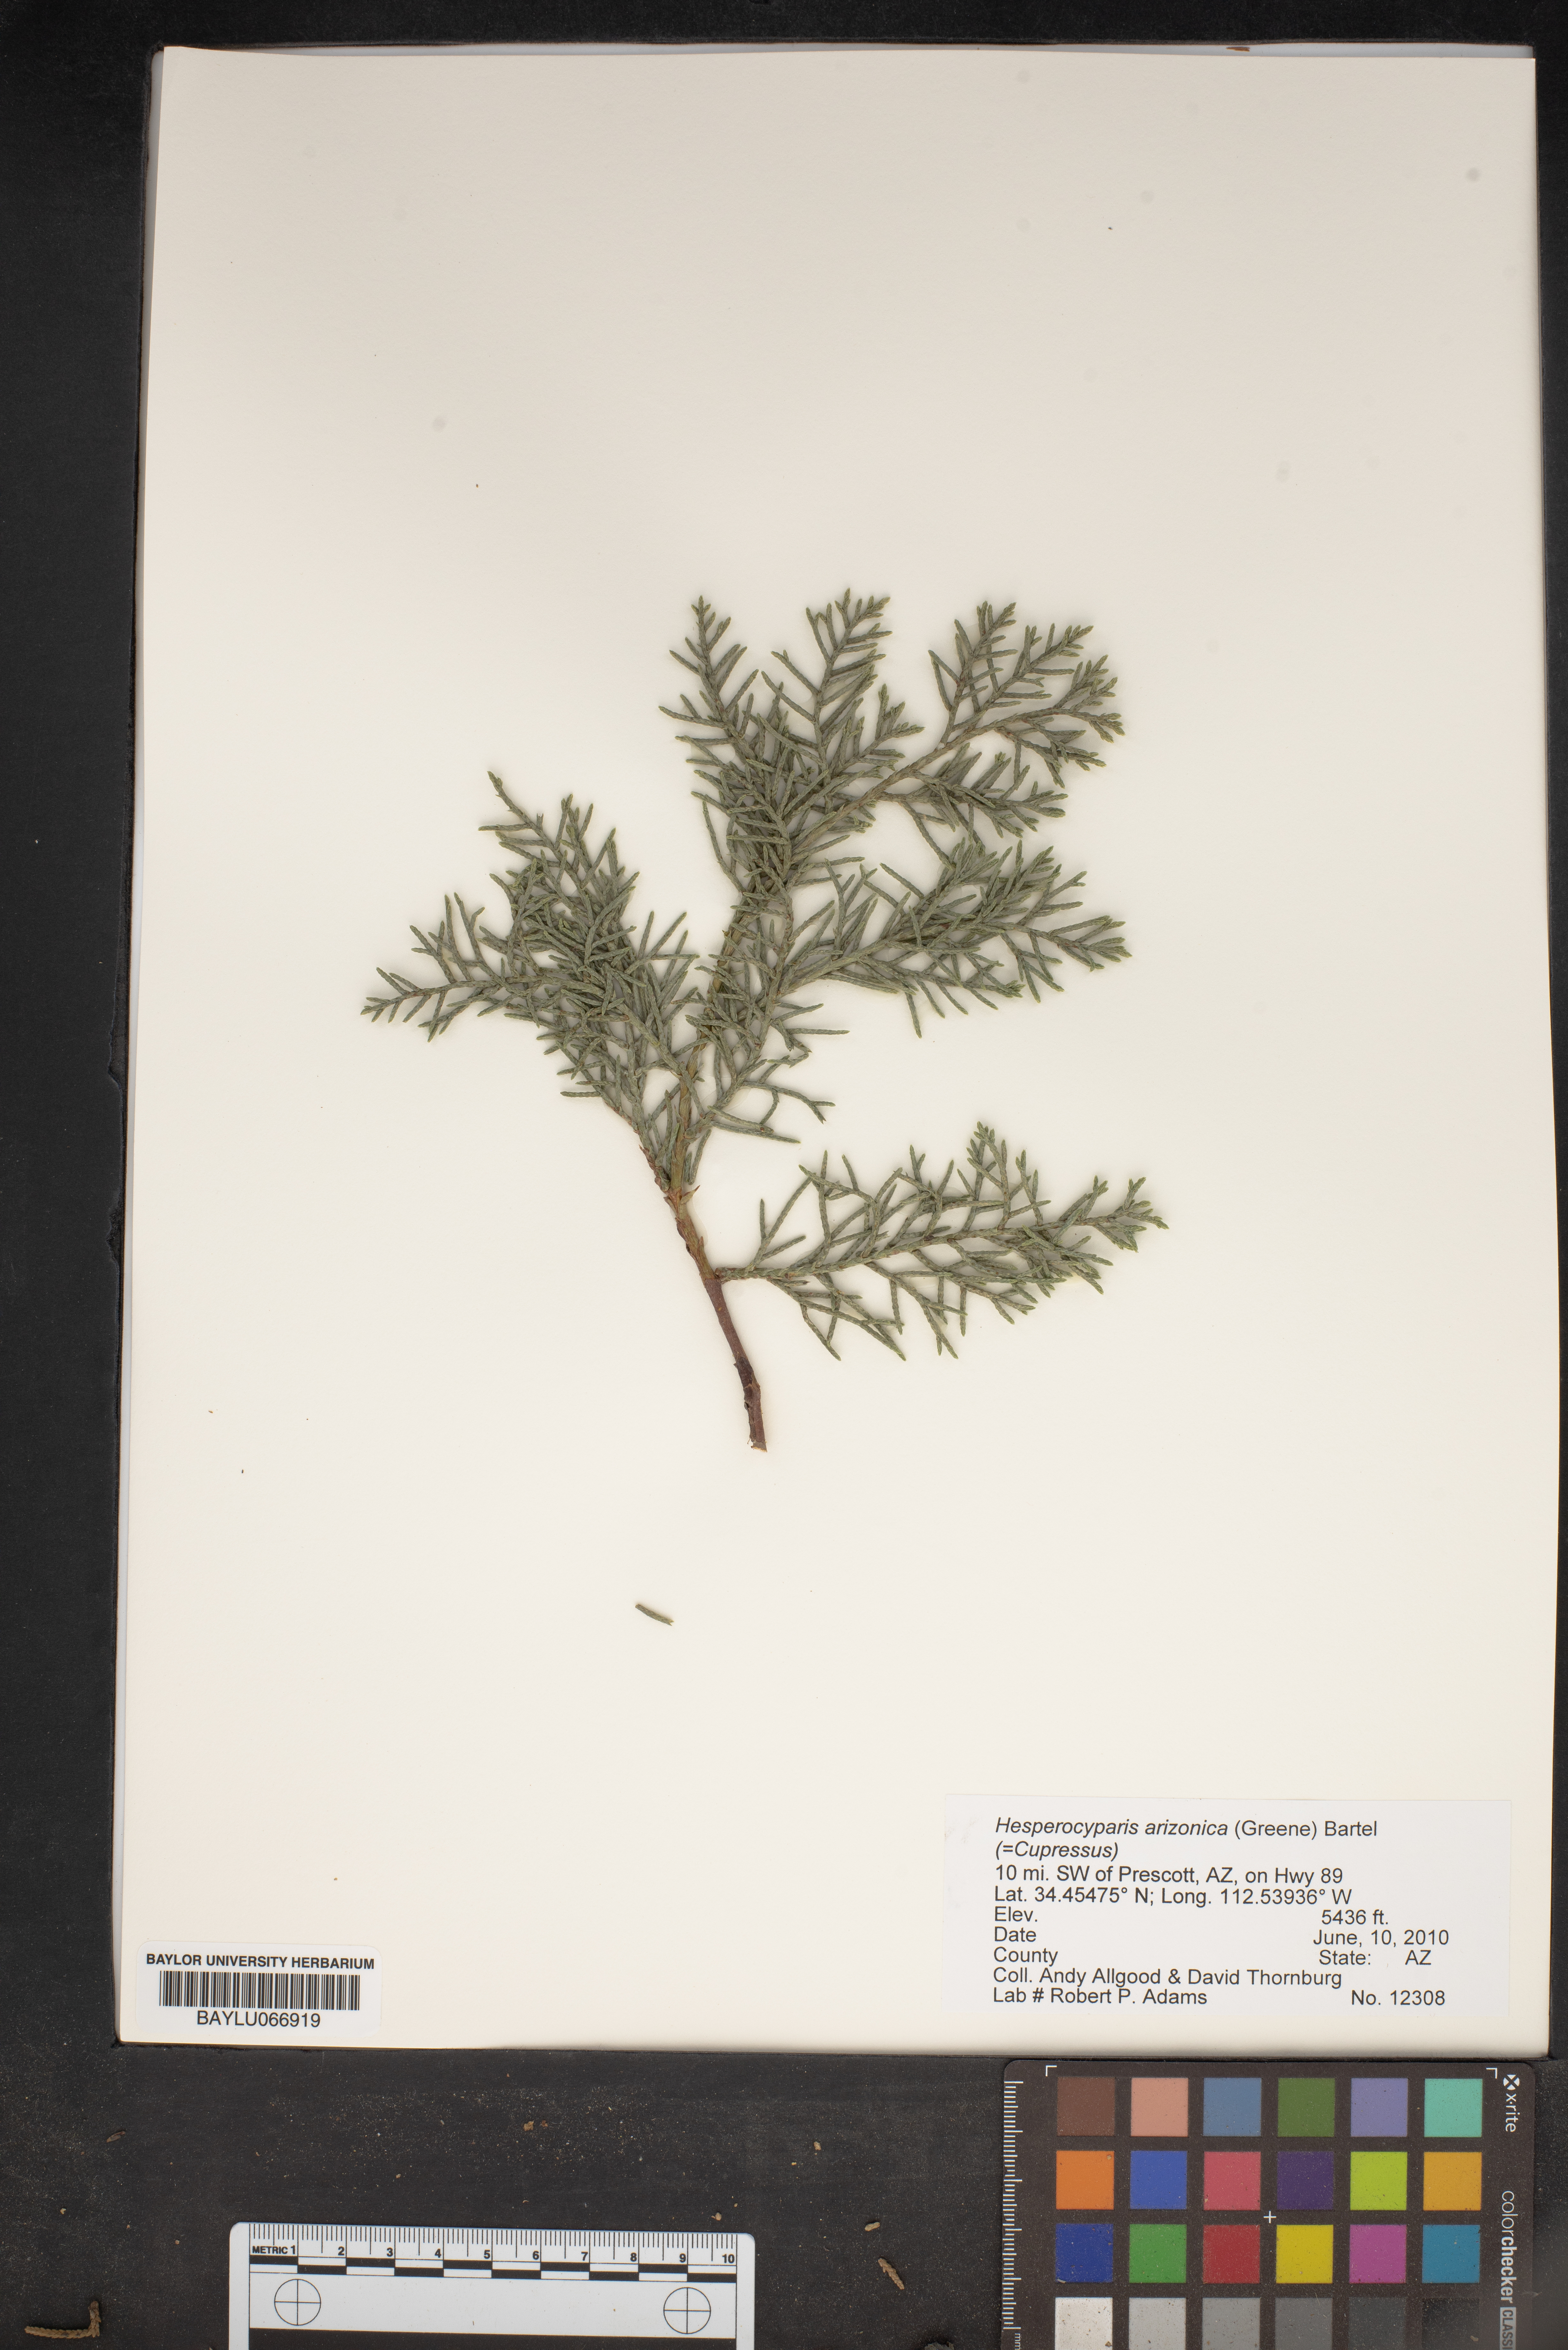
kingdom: Plantae
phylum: Tracheophyta
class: Pinopsida
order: Pinales
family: Cupressaceae
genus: Cupressus
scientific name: Cupressus arizonica
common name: Arizona cypress
